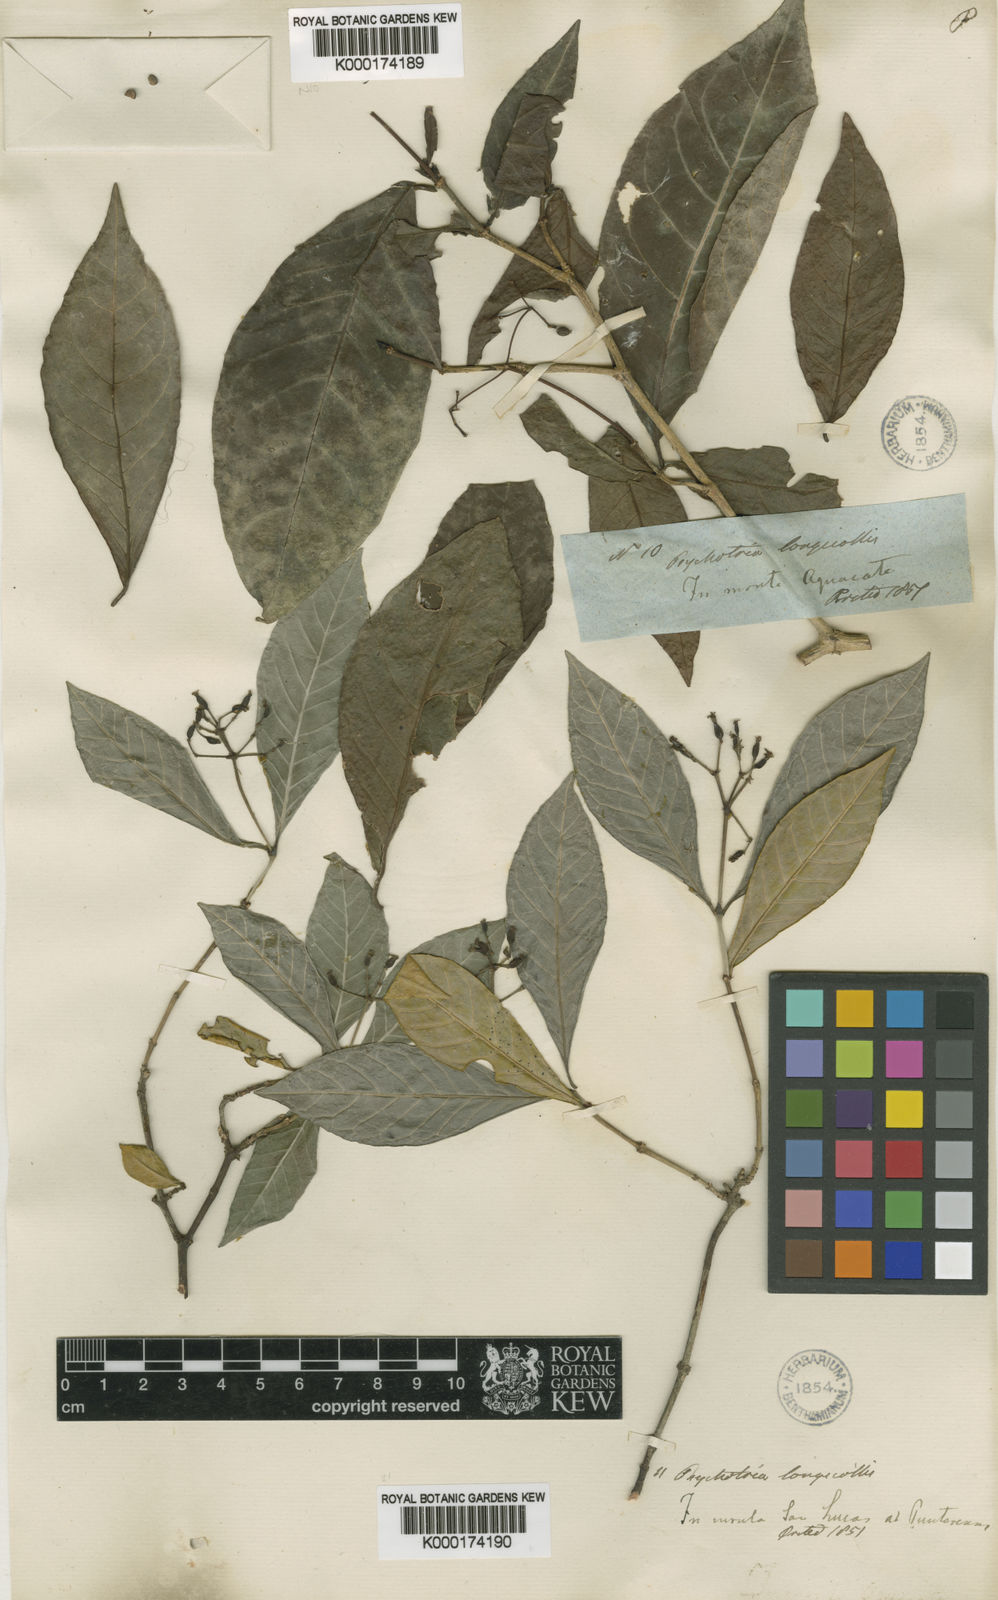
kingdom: Plantae
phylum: Tracheophyta
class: Magnoliopsida
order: Gentianales
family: Rubiaceae
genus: Psychotria
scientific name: Psychotria horizontalis
